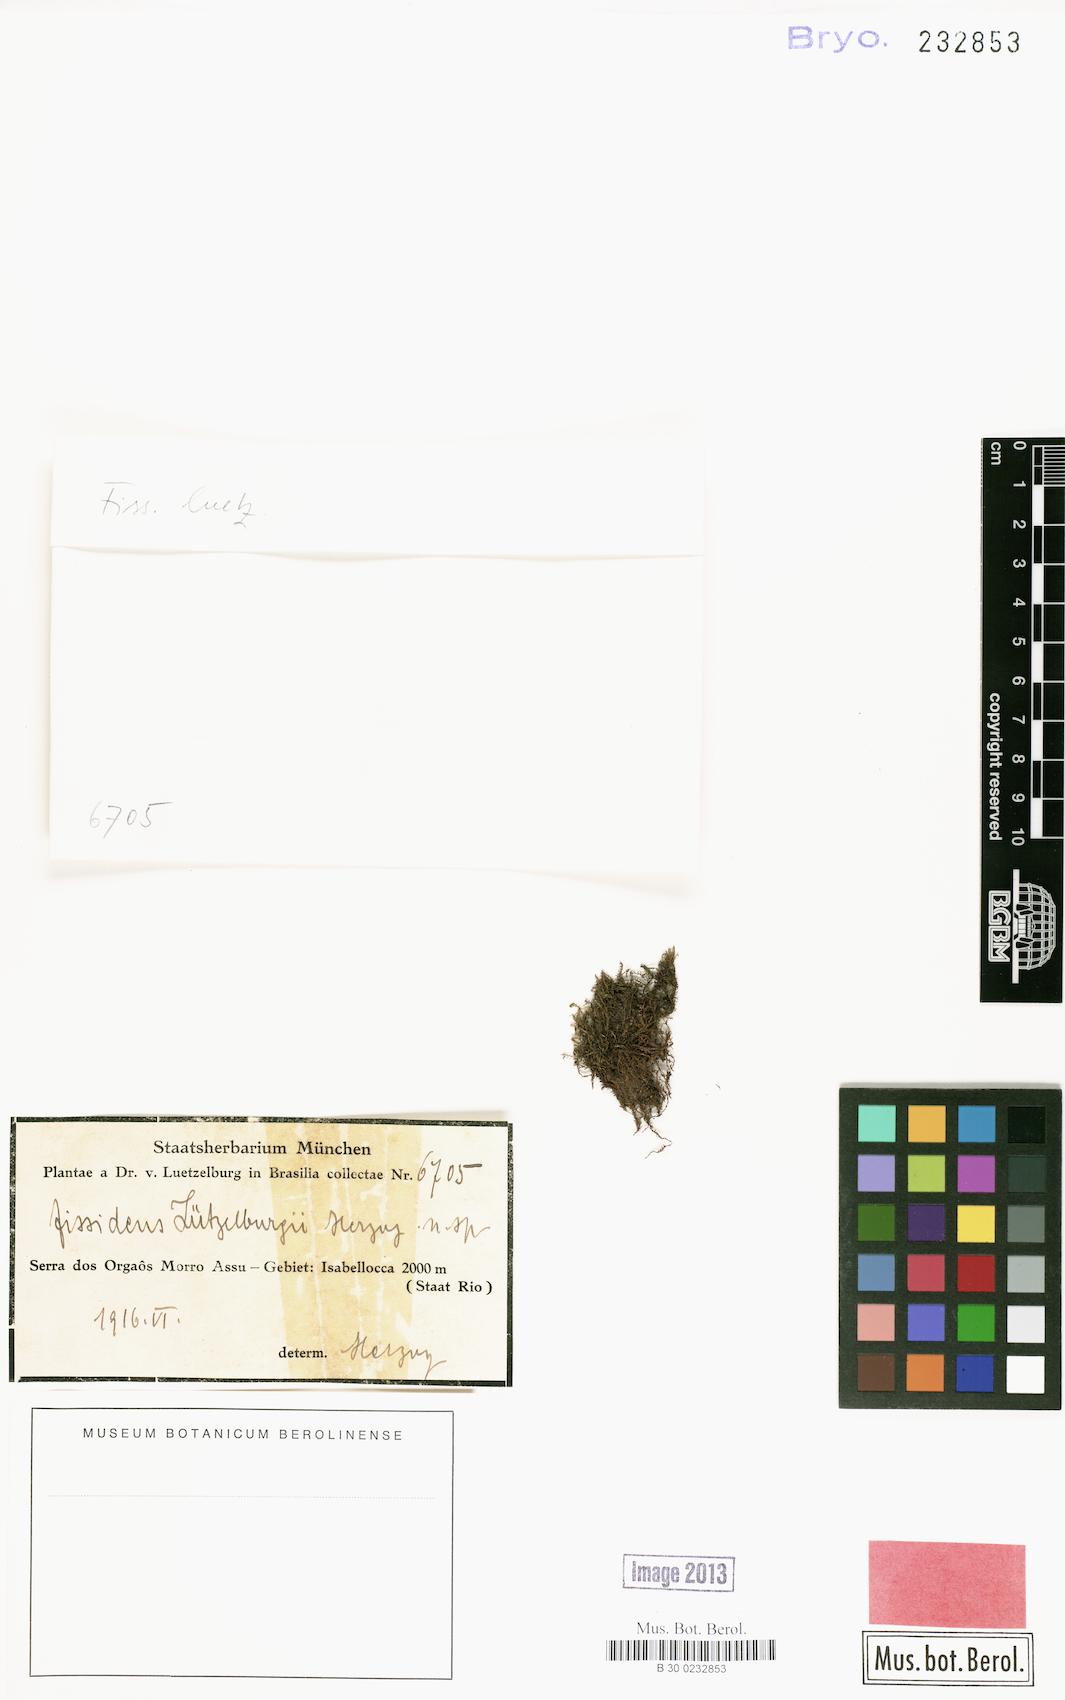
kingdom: Plantae
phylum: Bryophyta
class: Bryopsida
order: Dicranales
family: Fissidentaceae
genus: Fissidens
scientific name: Fissidens
